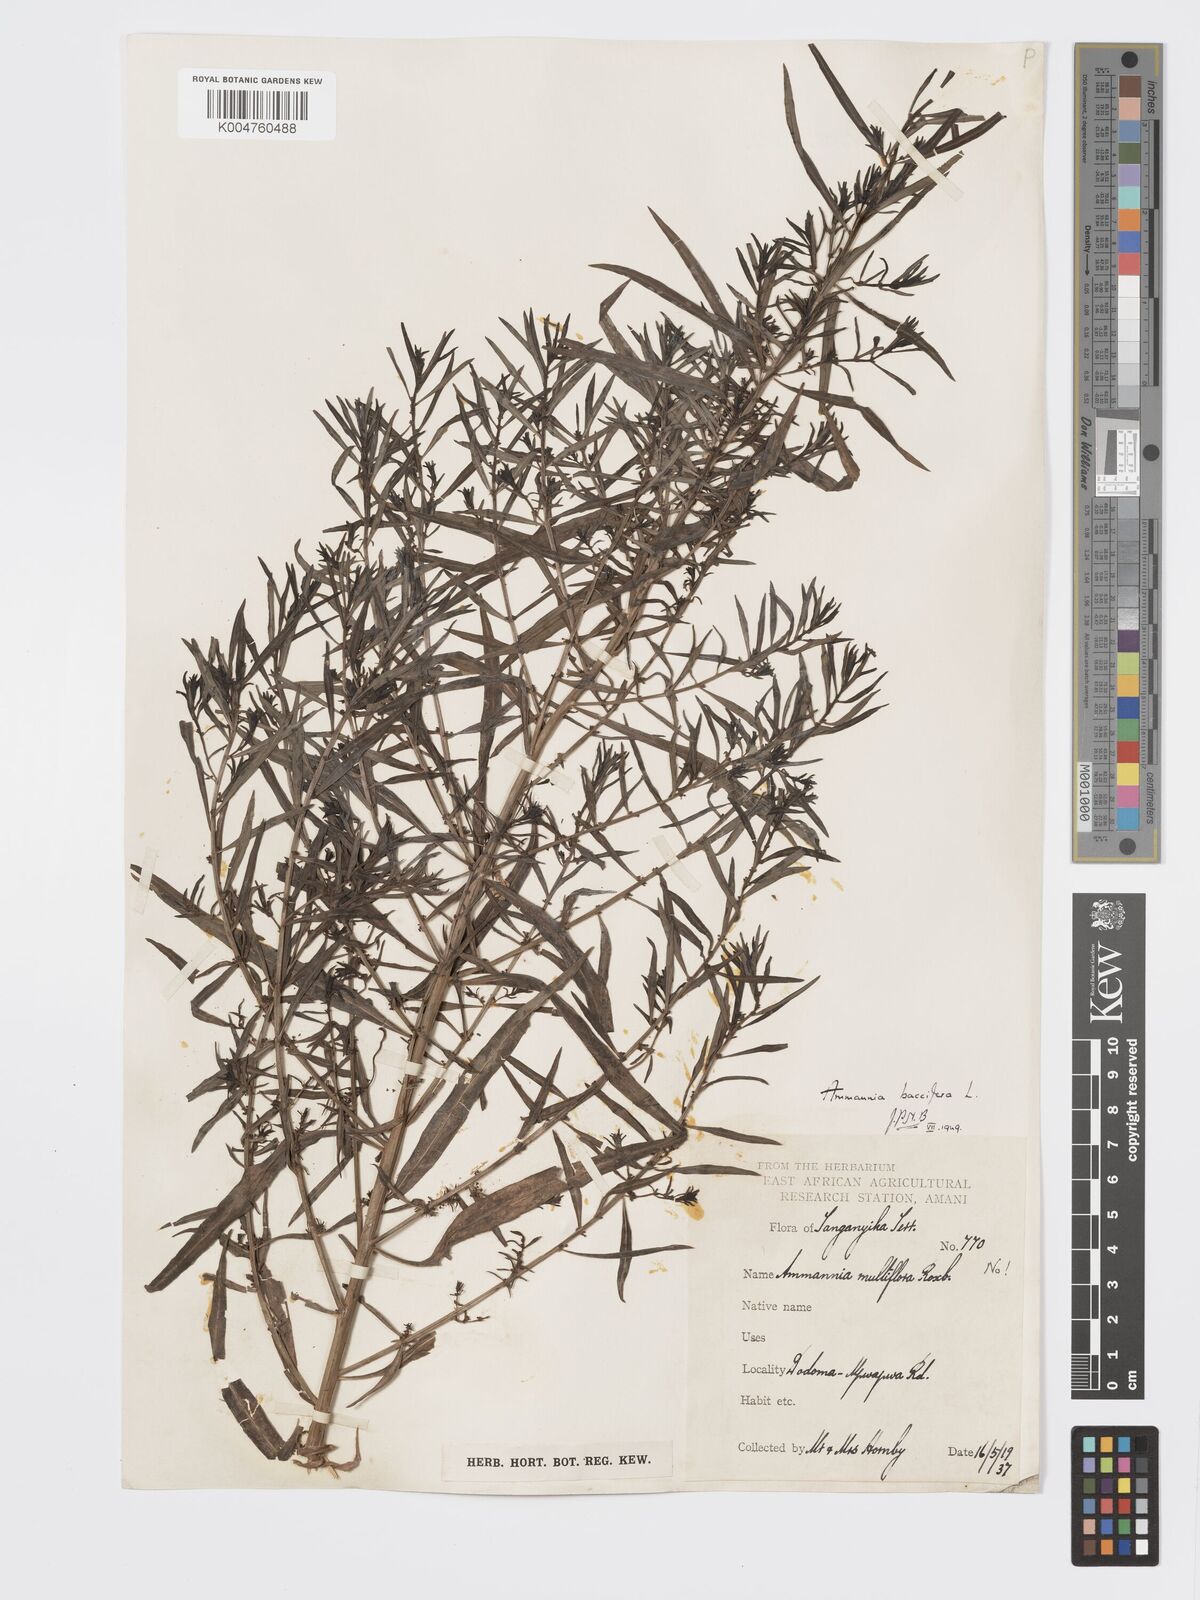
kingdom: Plantae
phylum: Tracheophyta
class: Magnoliopsida
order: Myrtales
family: Lythraceae
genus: Ammannia
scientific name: Ammannia
